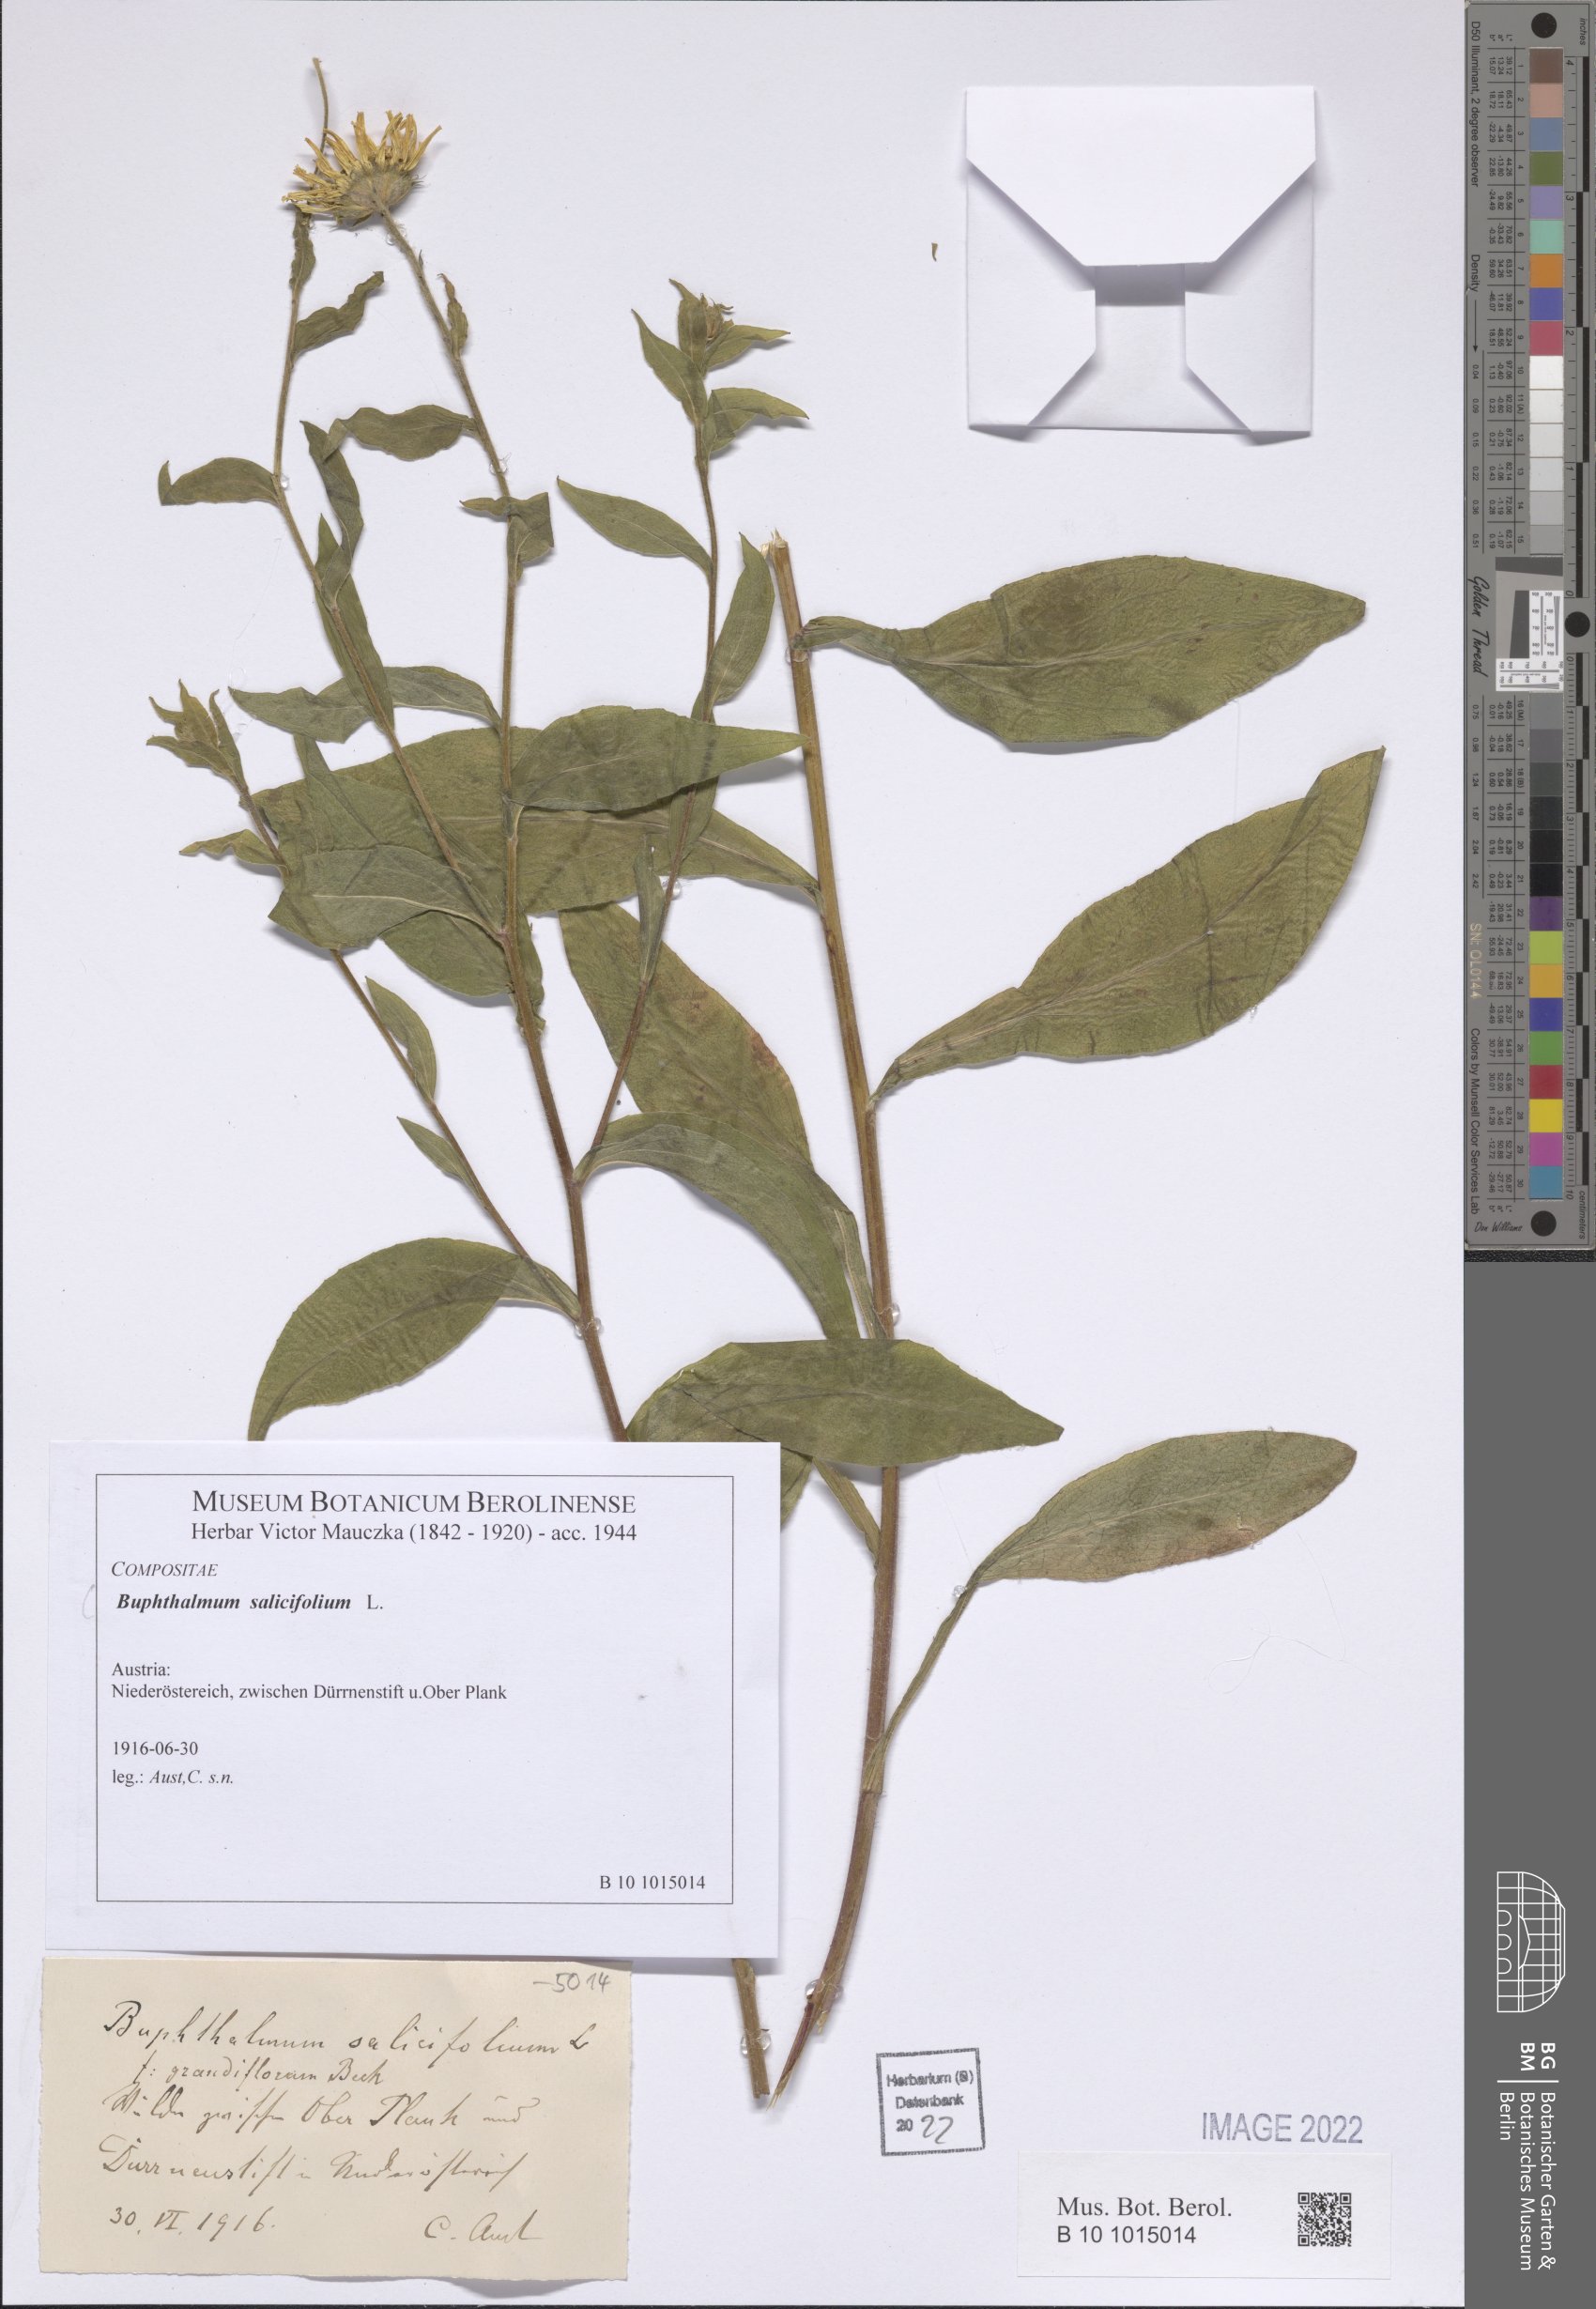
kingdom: Plantae
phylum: Tracheophyta
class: Magnoliopsida
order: Asterales
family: Asteraceae
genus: Buphthalmum
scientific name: Buphthalmum salicifolium
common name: Willow-leaved yellow-oxeye
